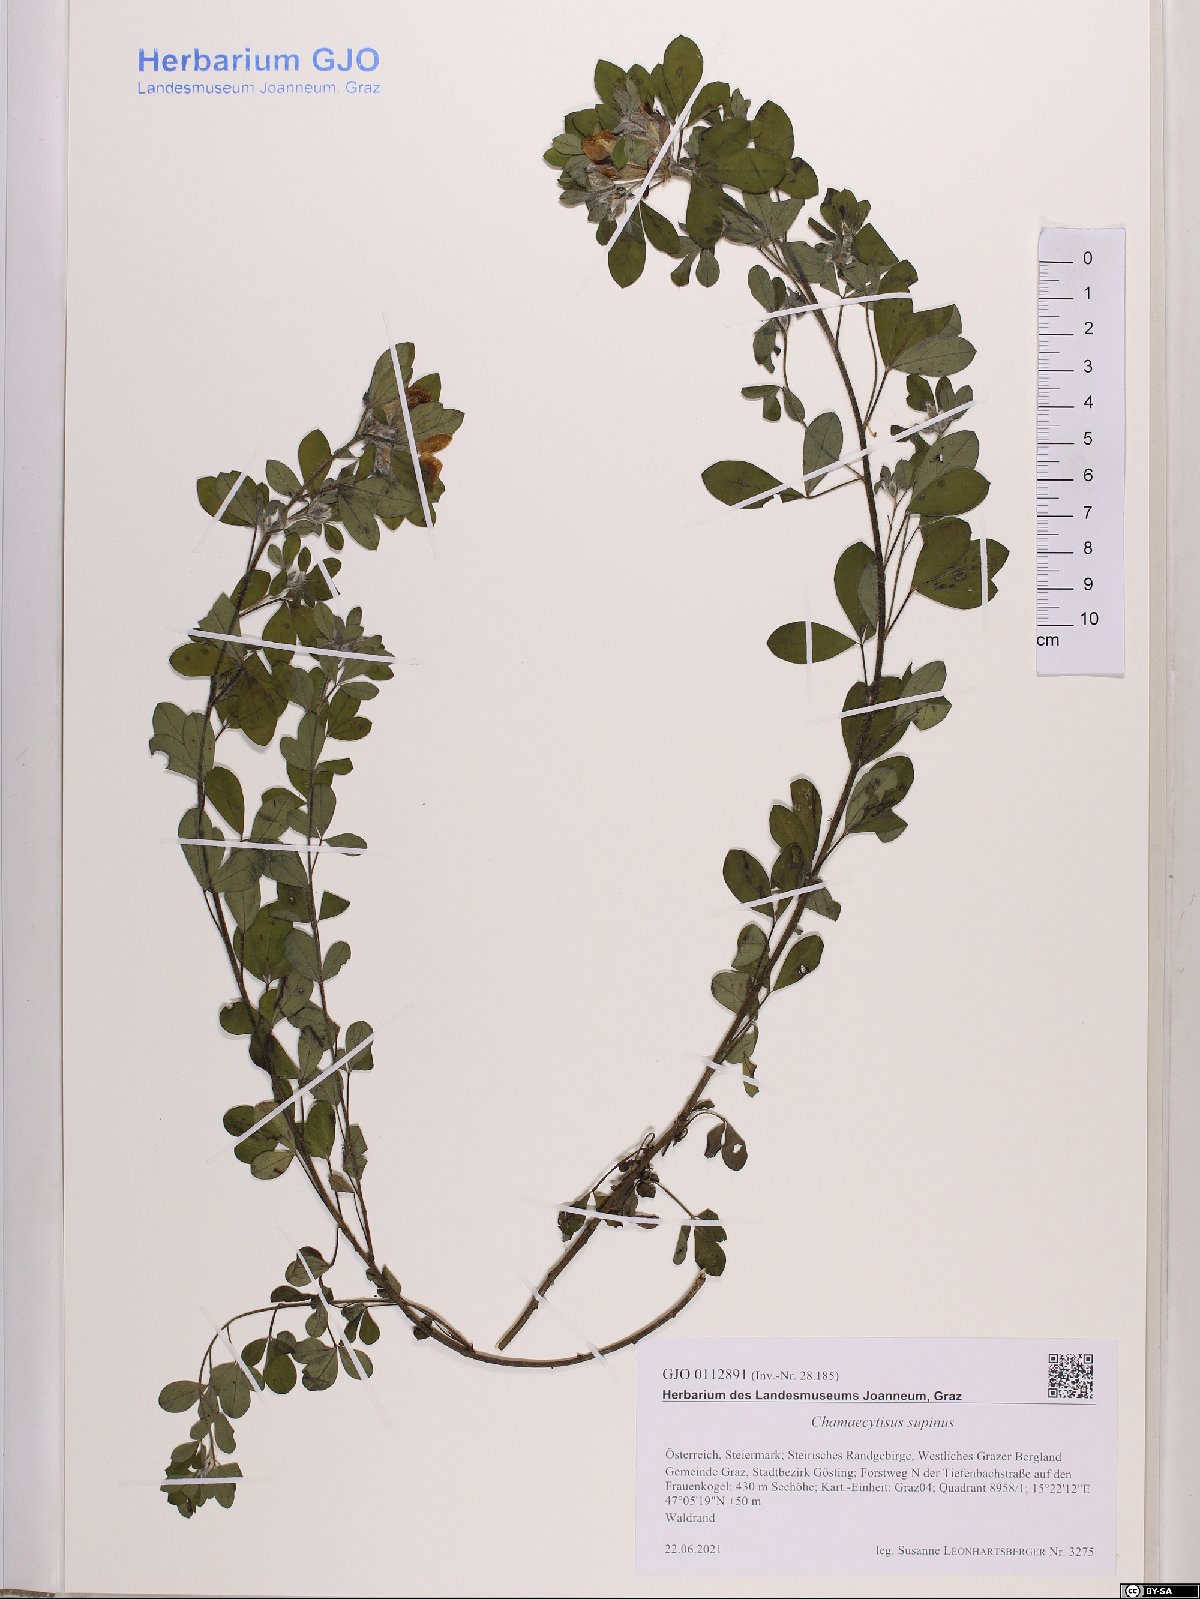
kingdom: Plantae
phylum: Tracheophyta
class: Magnoliopsida
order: Fabales
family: Fabaceae
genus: Chamaecytisus
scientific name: Chamaecytisus supinus
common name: Clustered broom
